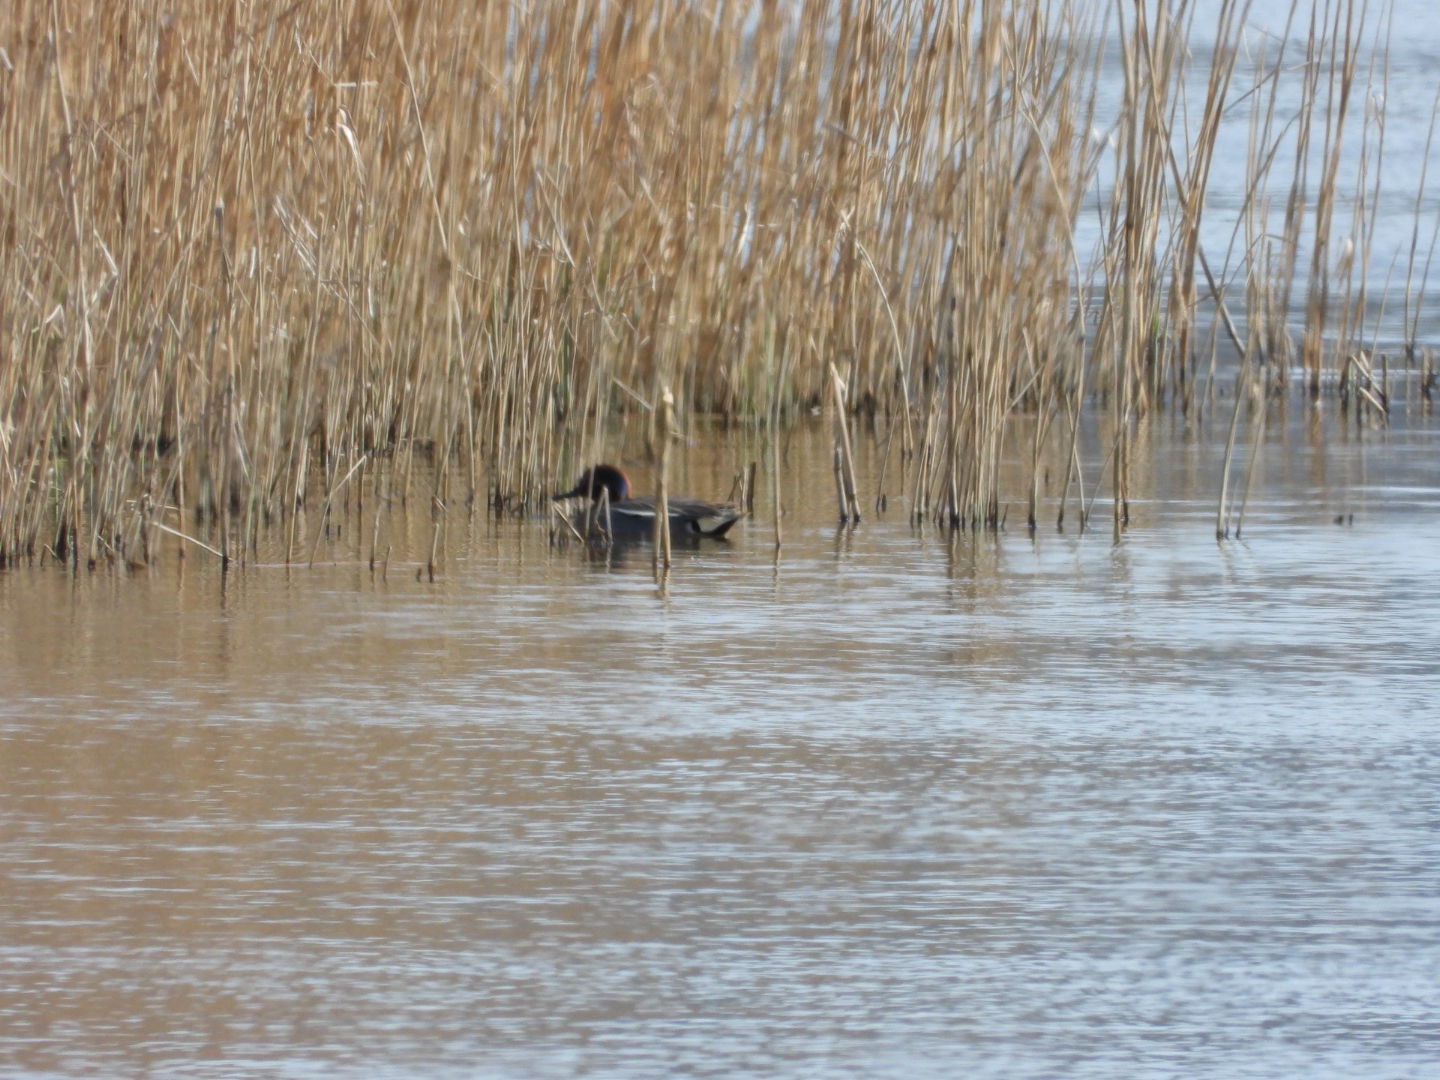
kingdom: Animalia
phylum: Chordata
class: Aves
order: Anseriformes
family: Anatidae
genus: Anas
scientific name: Anas crecca
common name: Krikand
